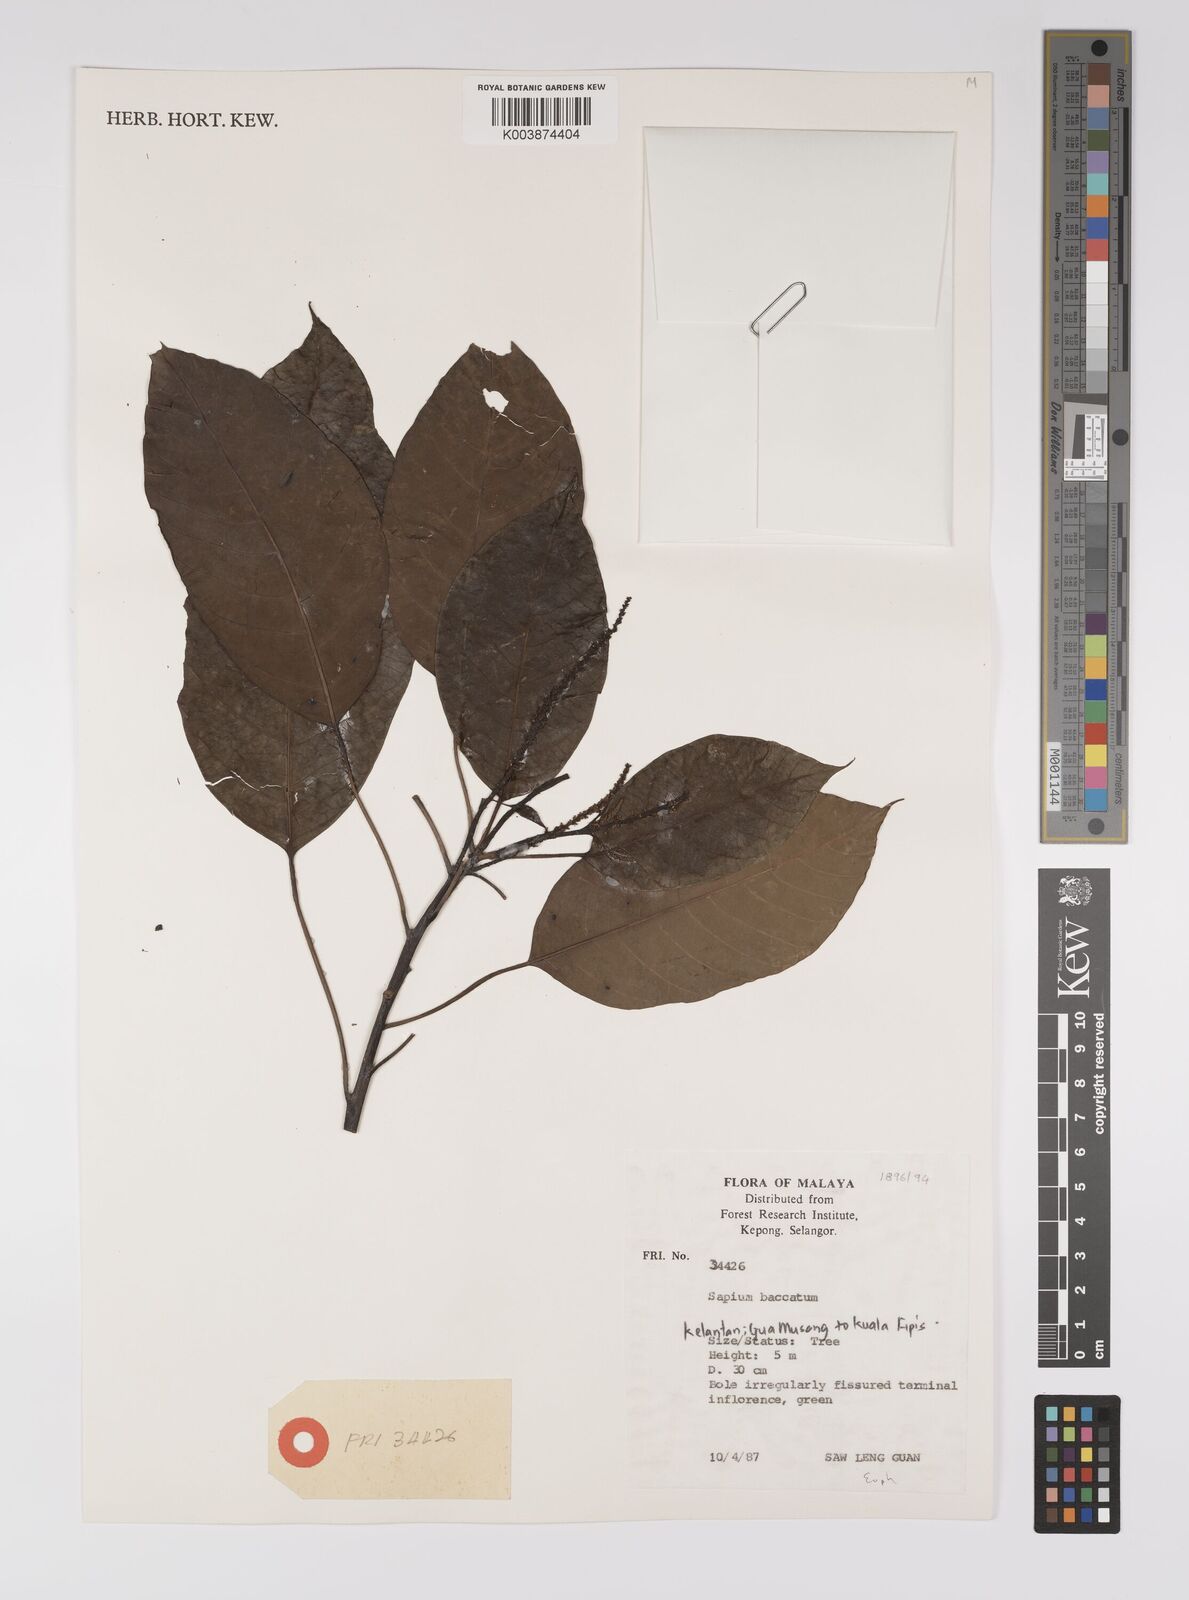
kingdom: Plantae
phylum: Tracheophyta
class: Magnoliopsida
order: Malpighiales
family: Euphorbiaceae
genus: Balakata
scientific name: Balakata baccata
